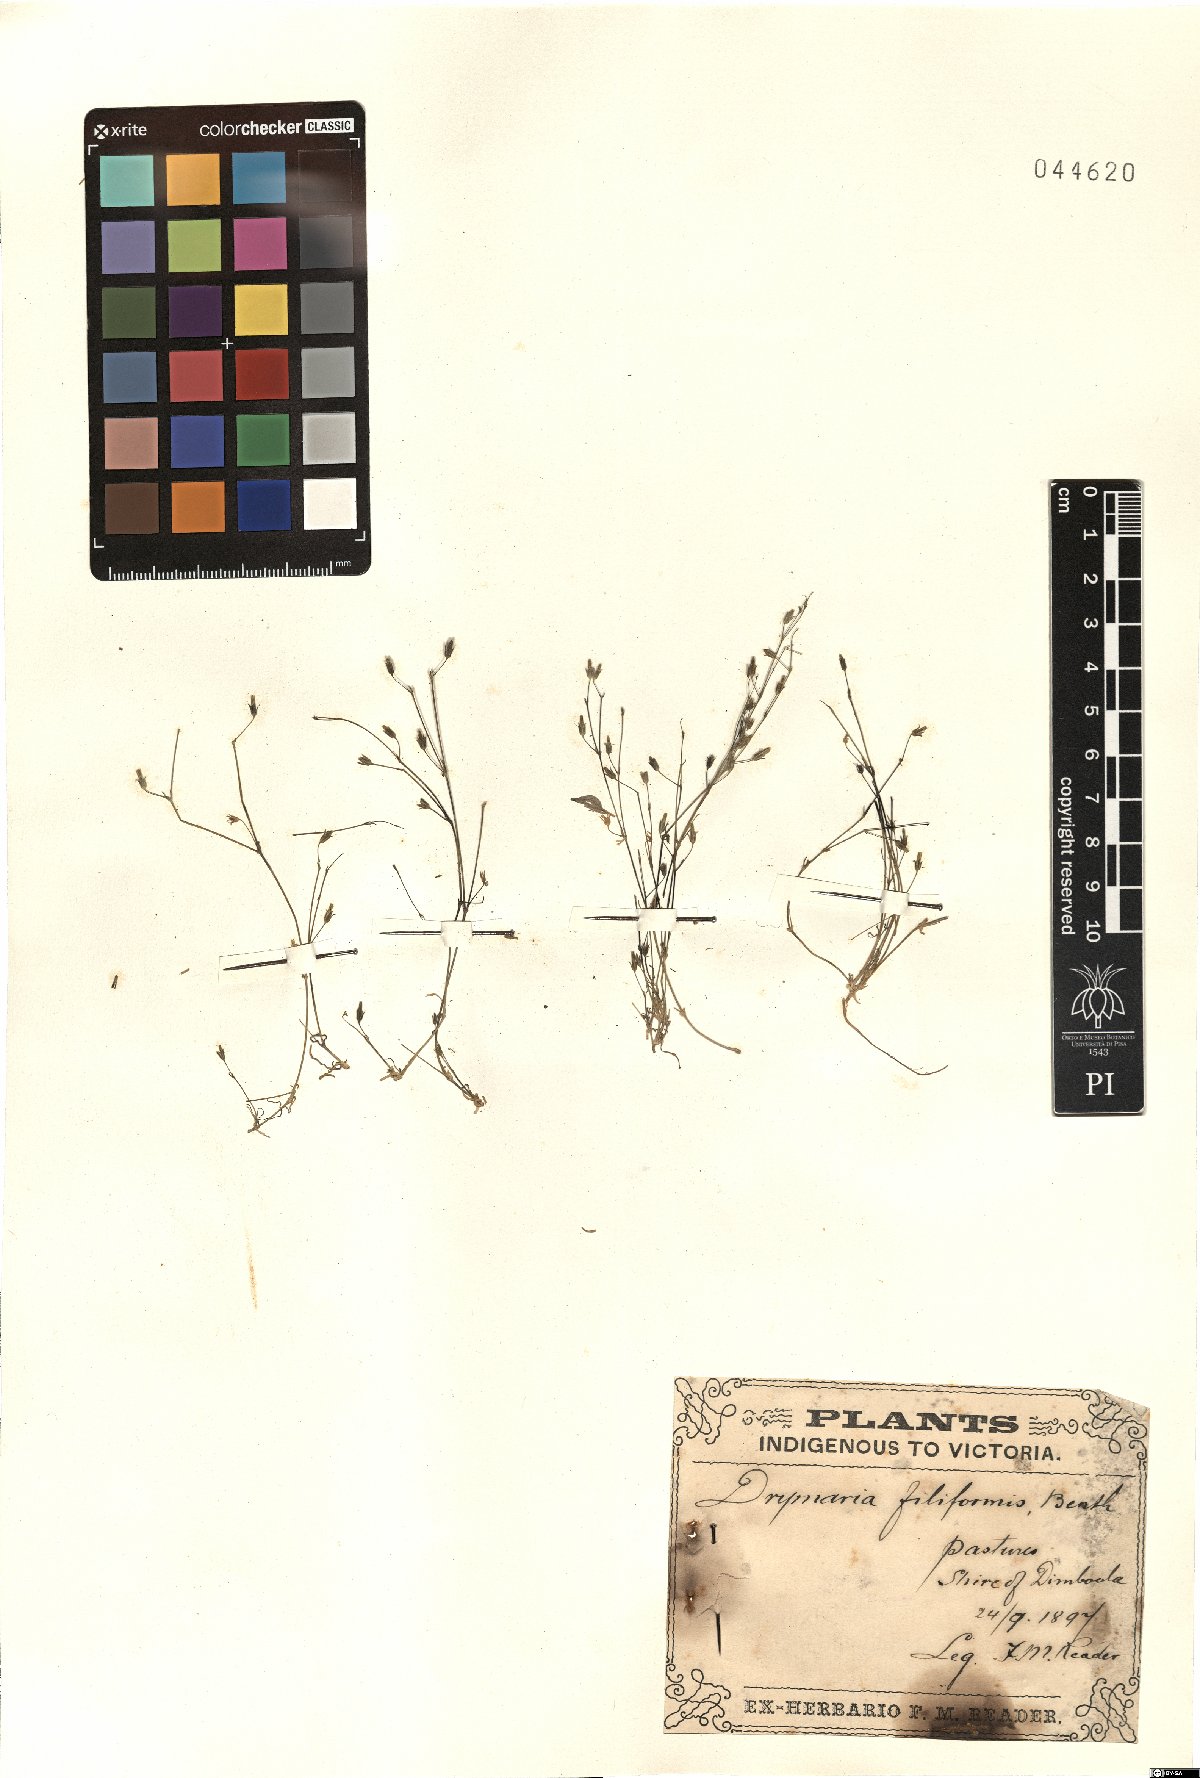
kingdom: Plantae
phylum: Tracheophyta
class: Magnoliopsida
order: Caryophyllales
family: Caryophyllaceae
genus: Stellaria
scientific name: Stellaria filiformis
